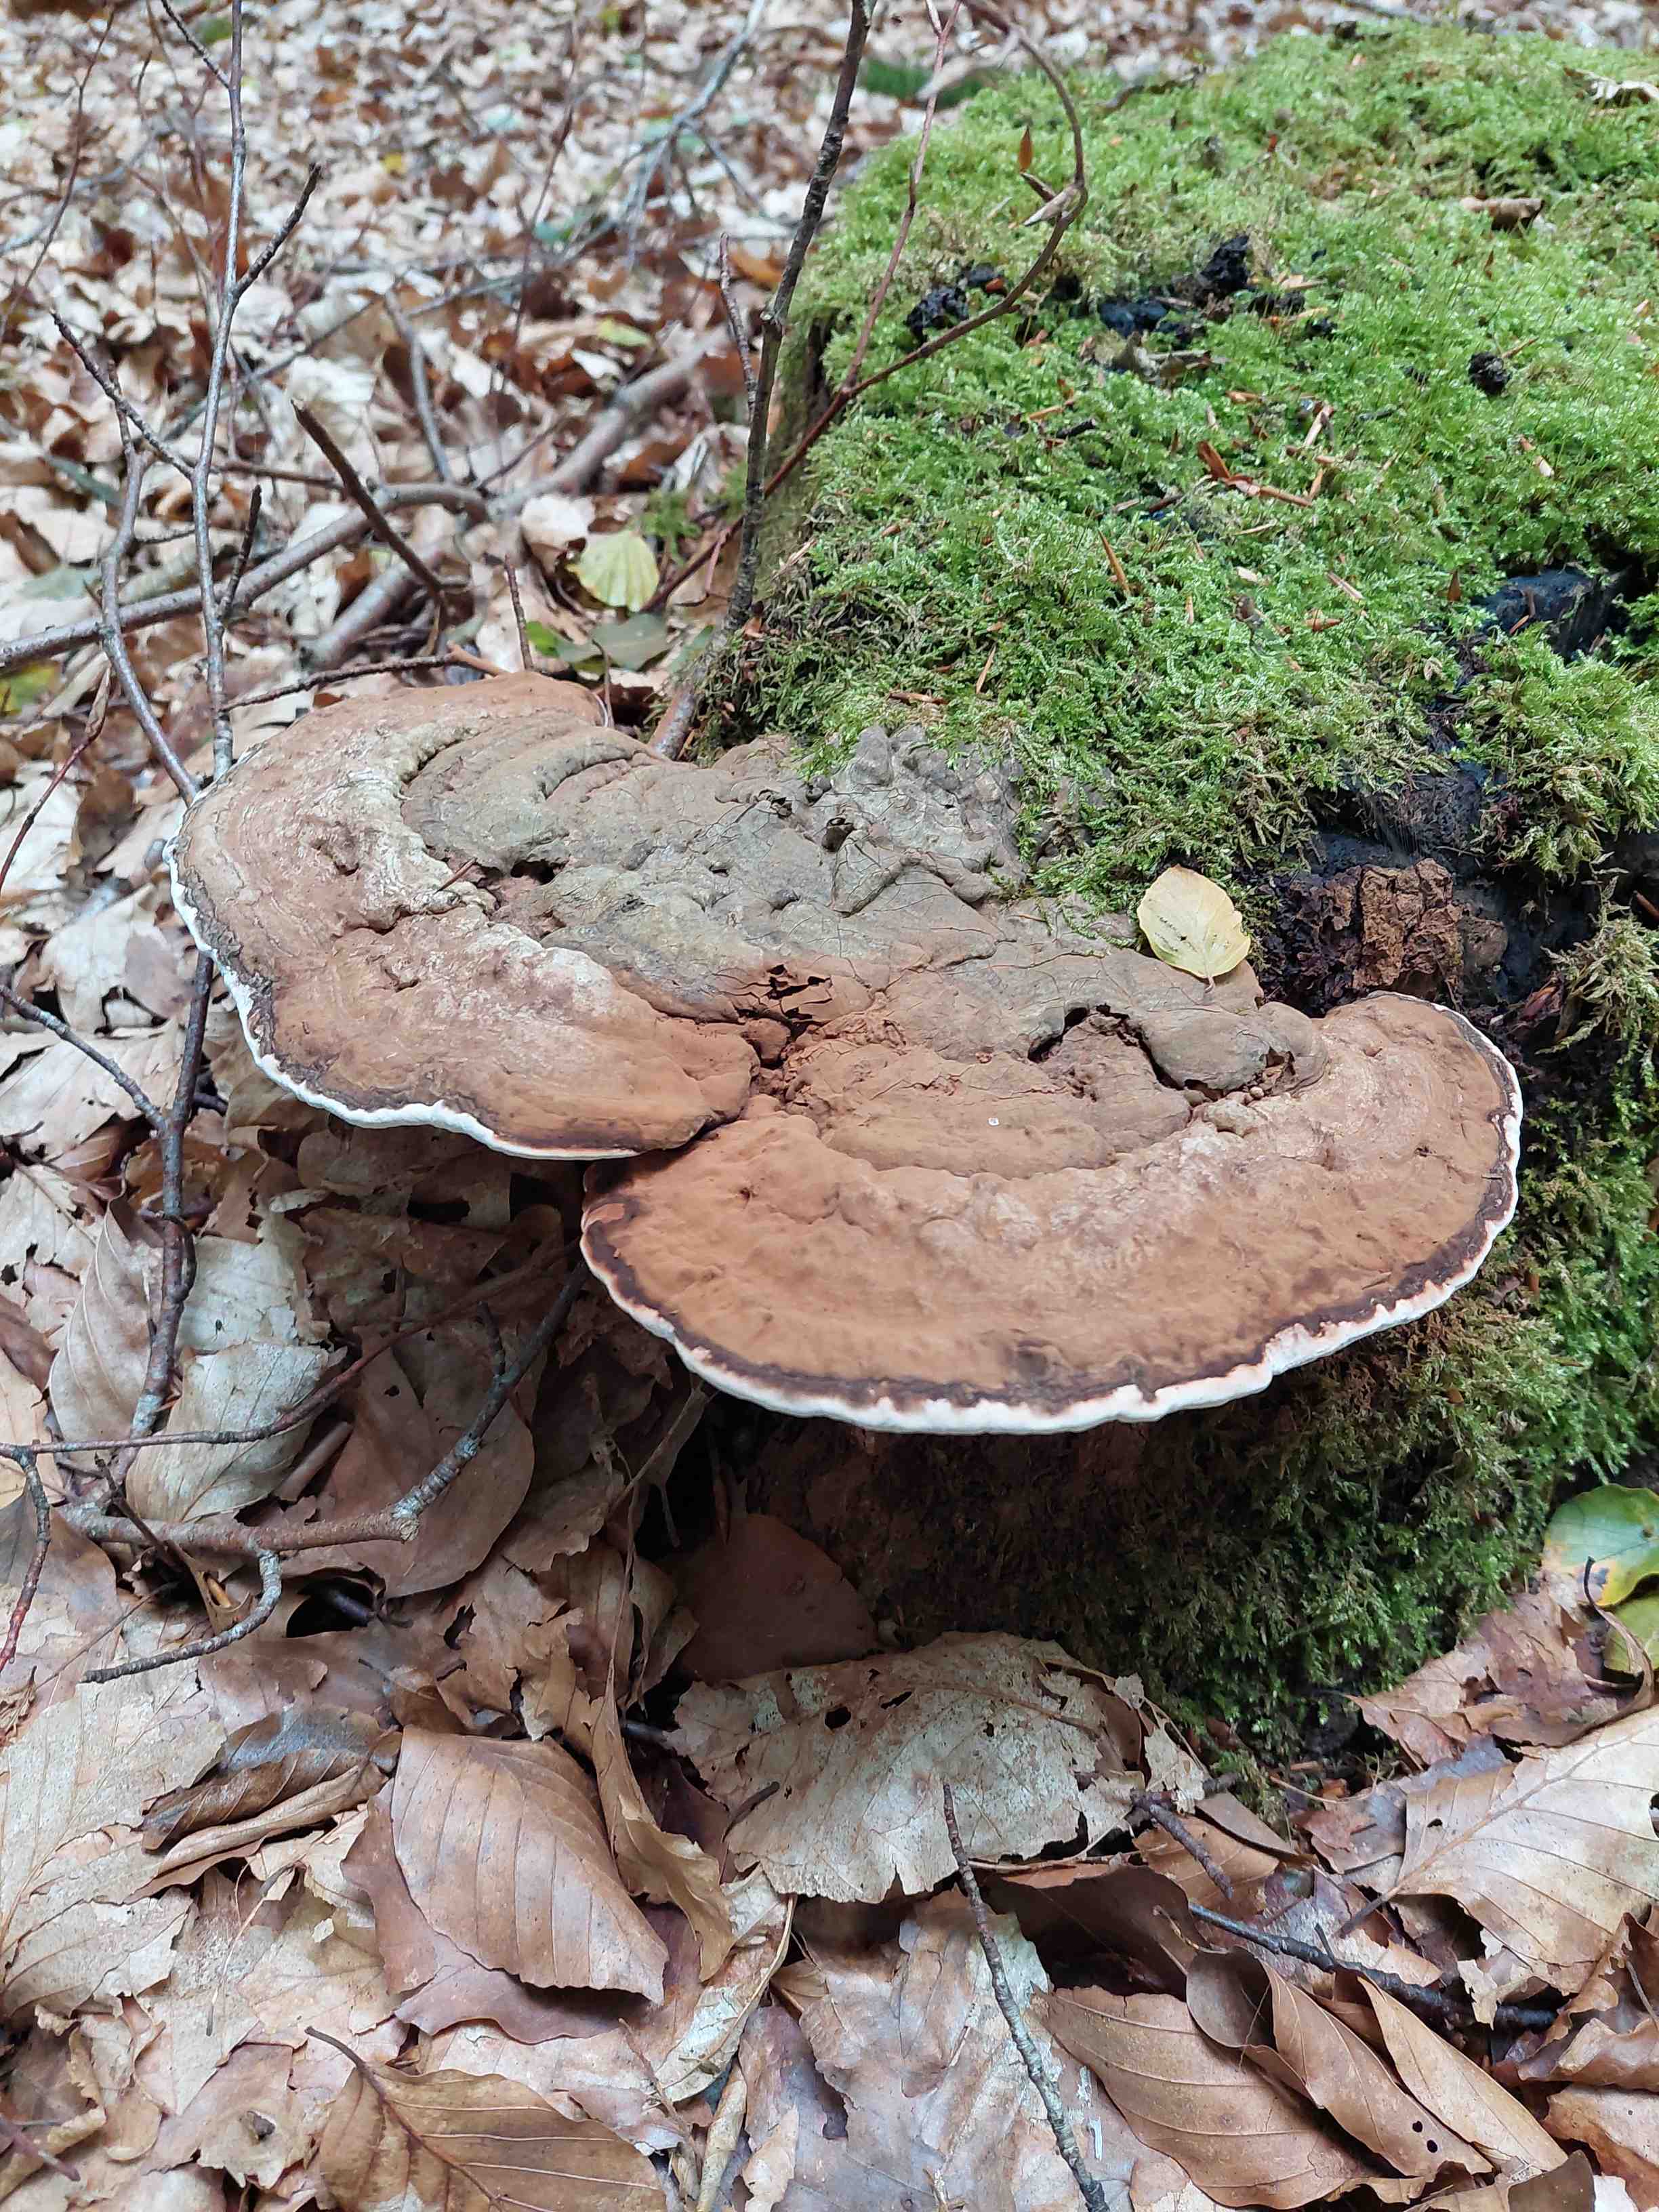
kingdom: Fungi
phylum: Basidiomycota
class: Agaricomycetes
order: Polyporales
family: Polyporaceae
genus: Ganoderma
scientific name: Ganoderma applanatum
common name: flad lakporesvamp
